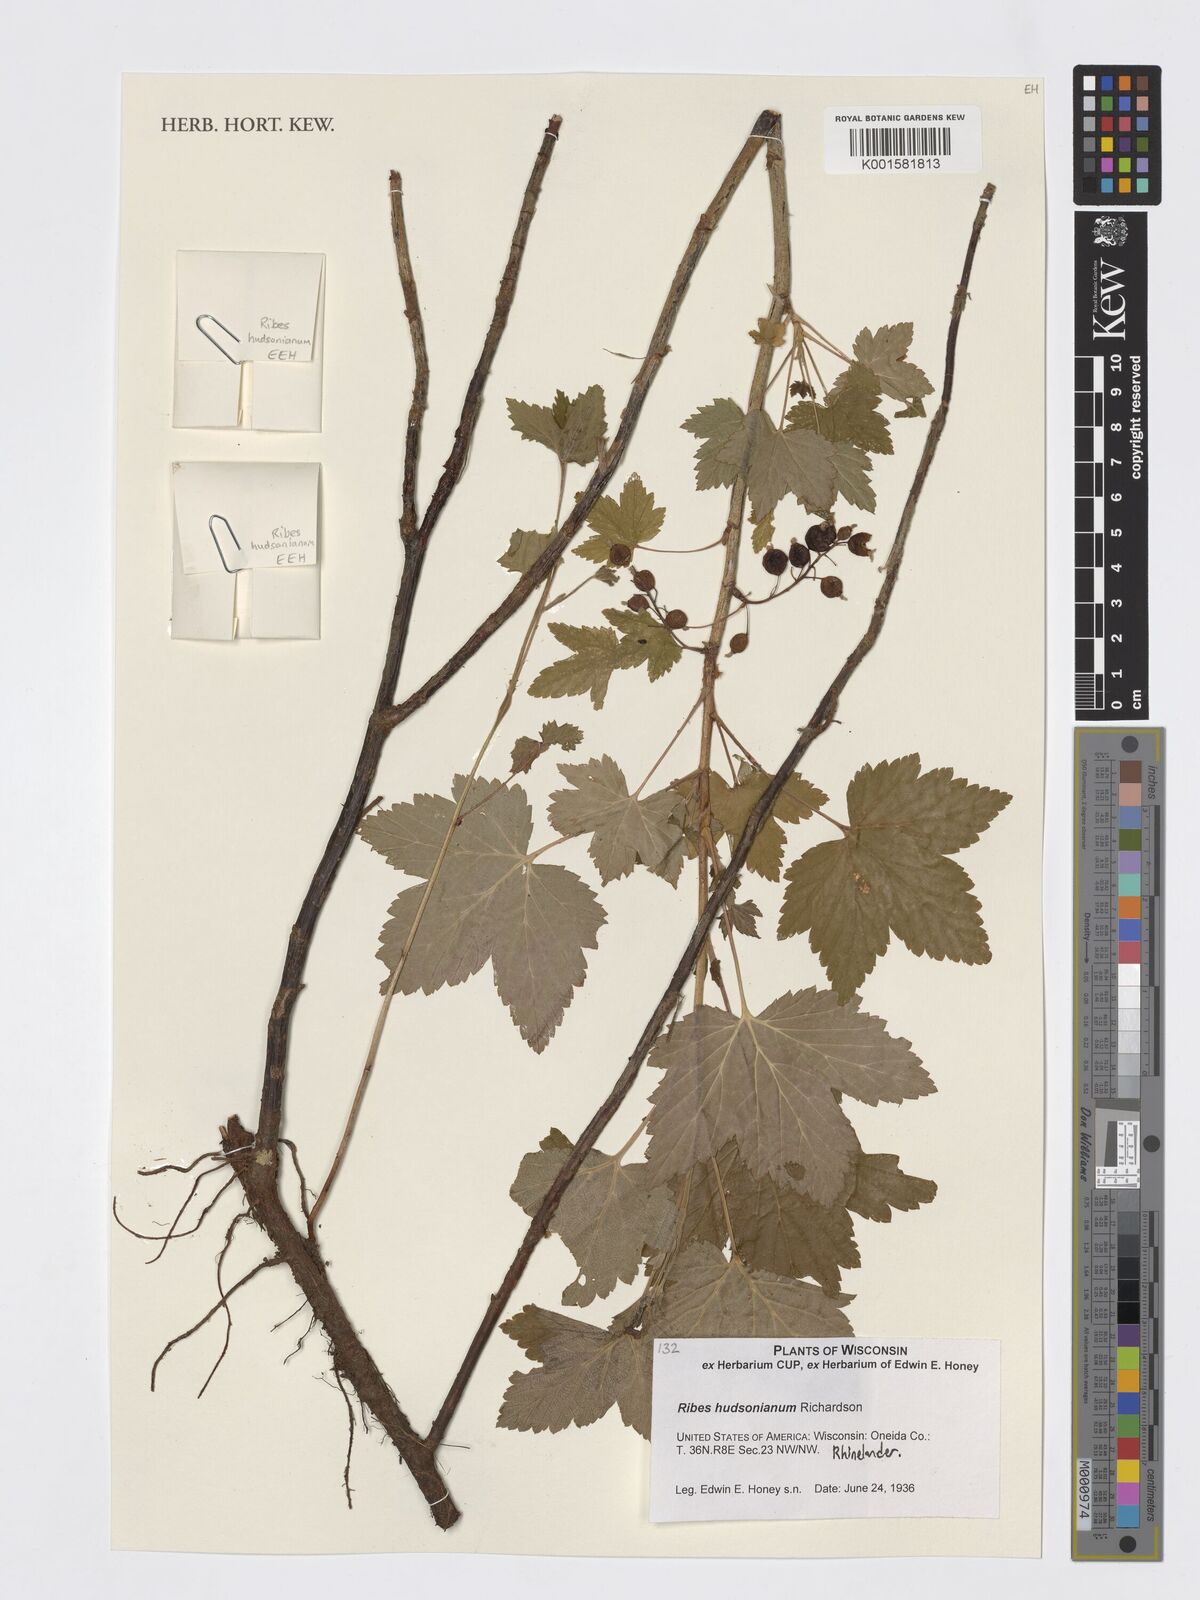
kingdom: Plantae
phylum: Tracheophyta
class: Magnoliopsida
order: Saxifragales
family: Grossulariaceae
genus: Ribes
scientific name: Ribes hudsonianum
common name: Northern black currant
